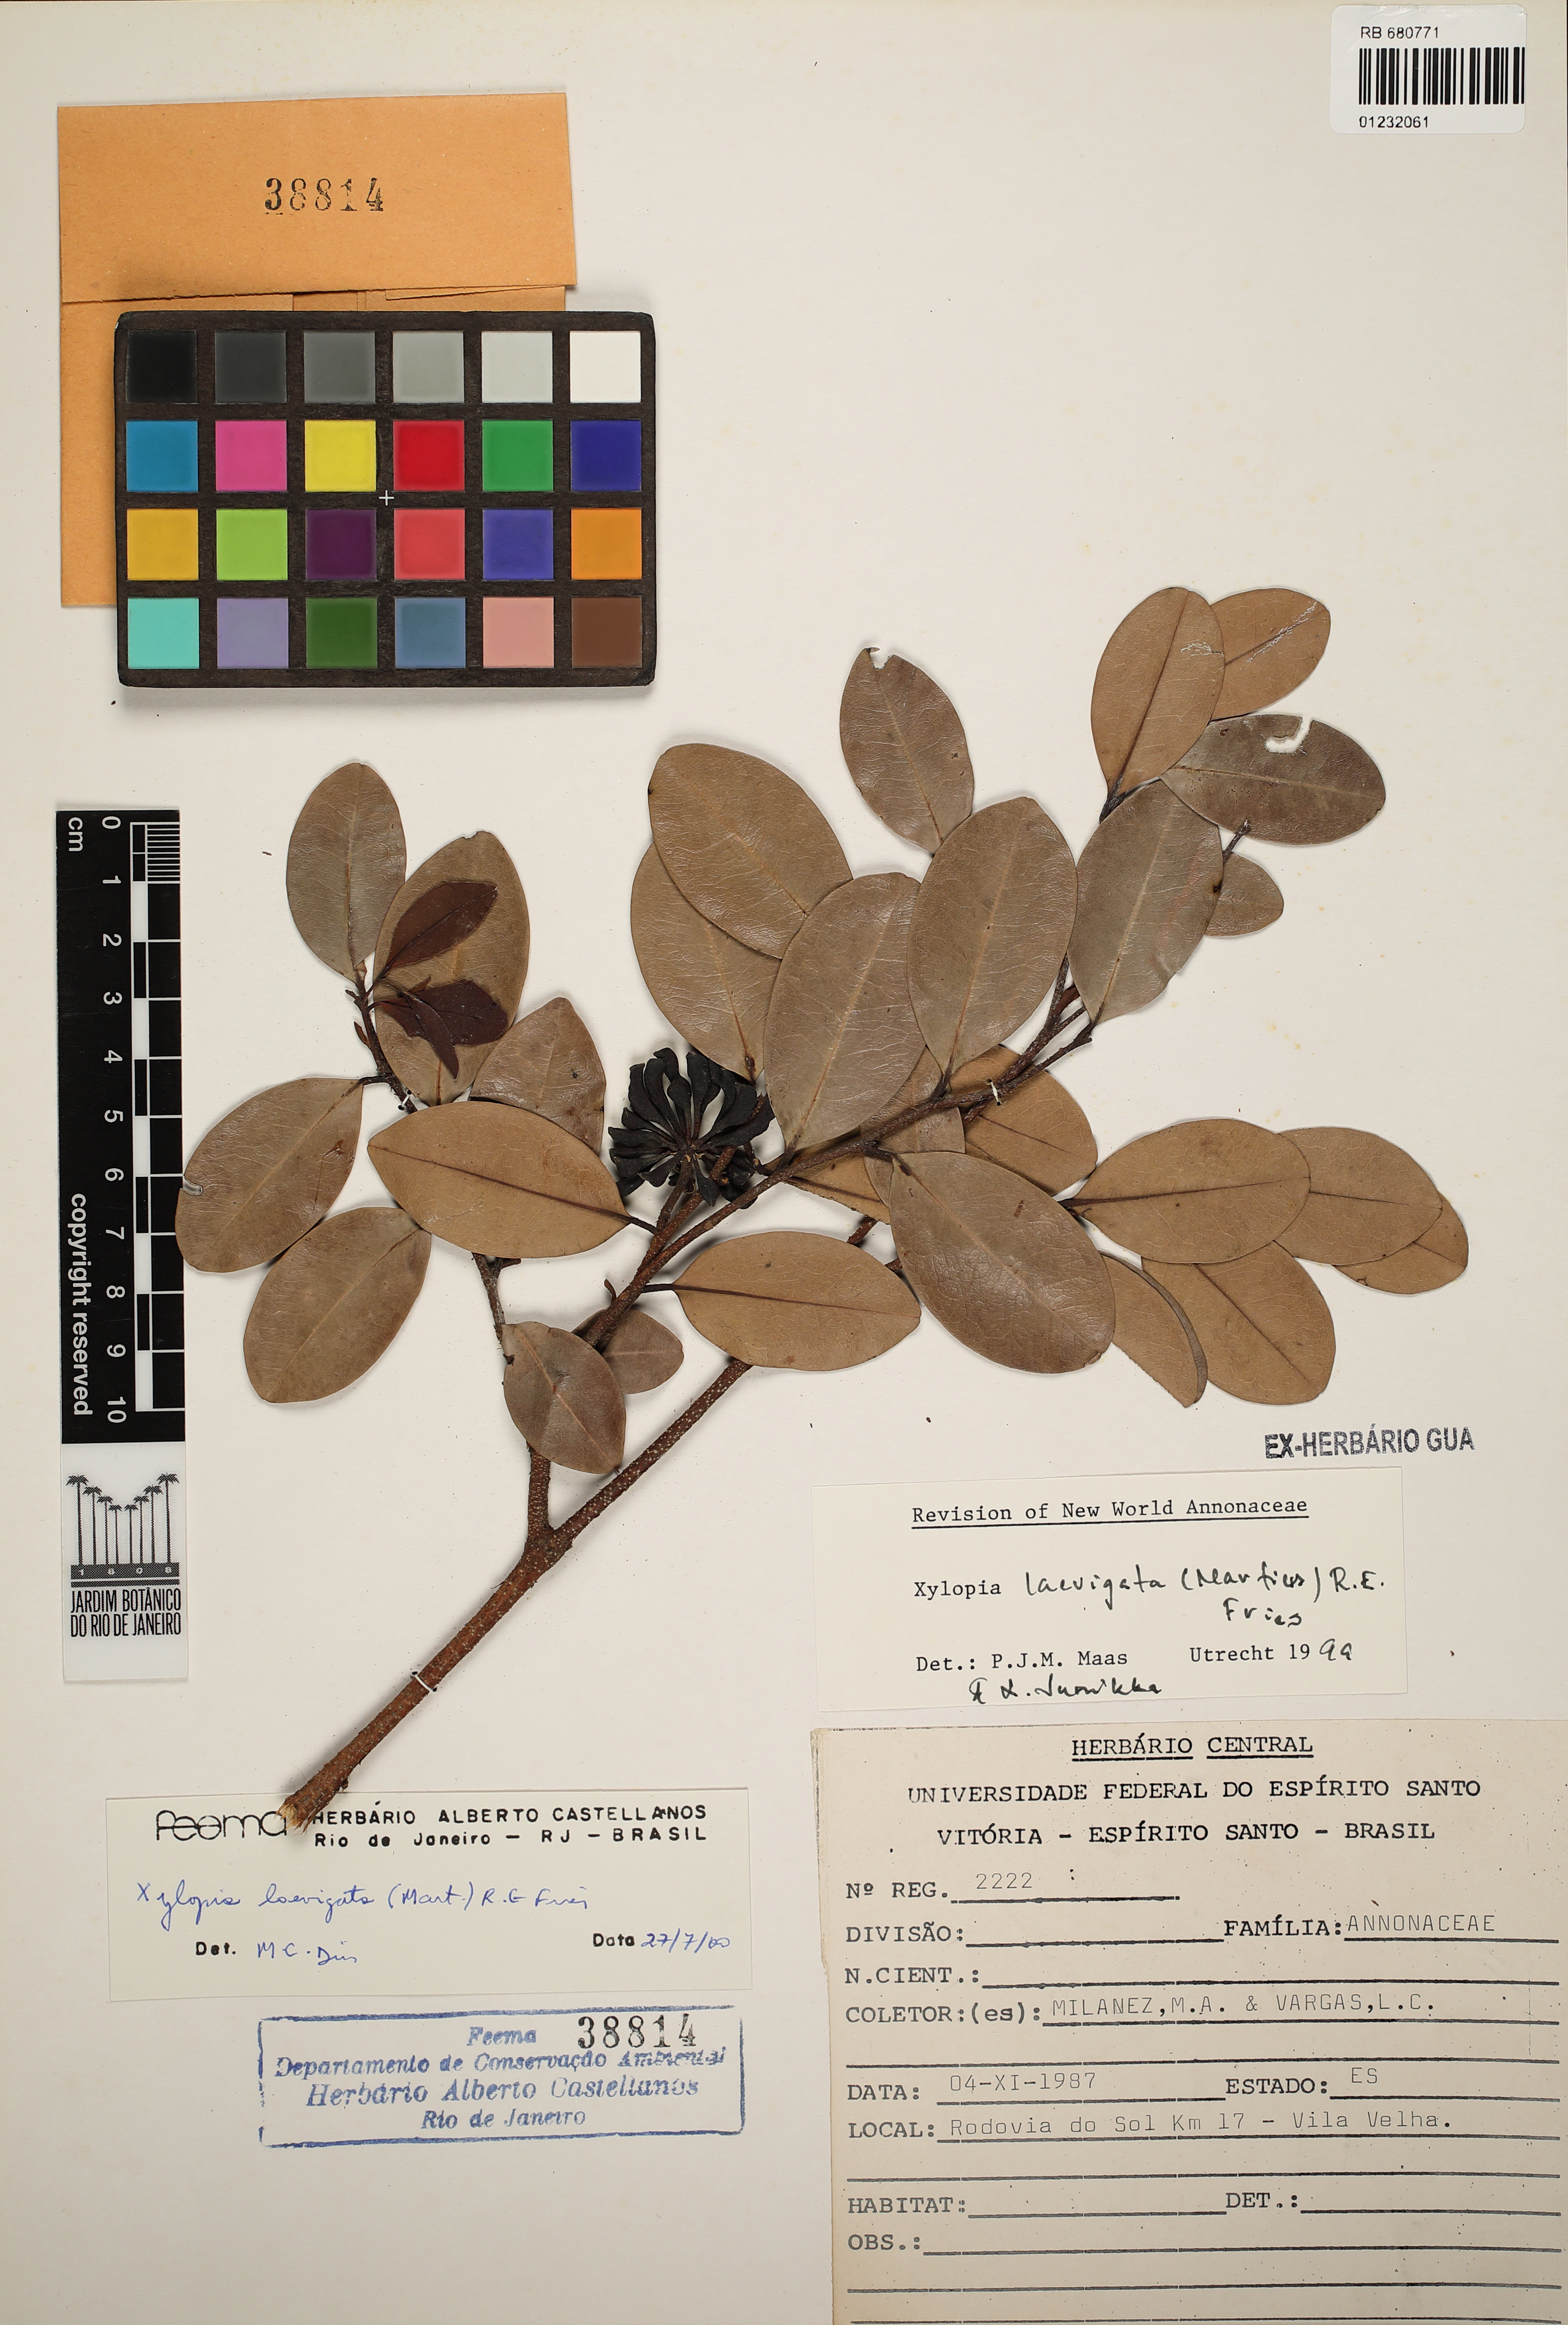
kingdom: Plantae
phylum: Tracheophyta
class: Magnoliopsida
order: Magnoliales
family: Annonaceae
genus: Xylopia
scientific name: Xylopia laevigata
